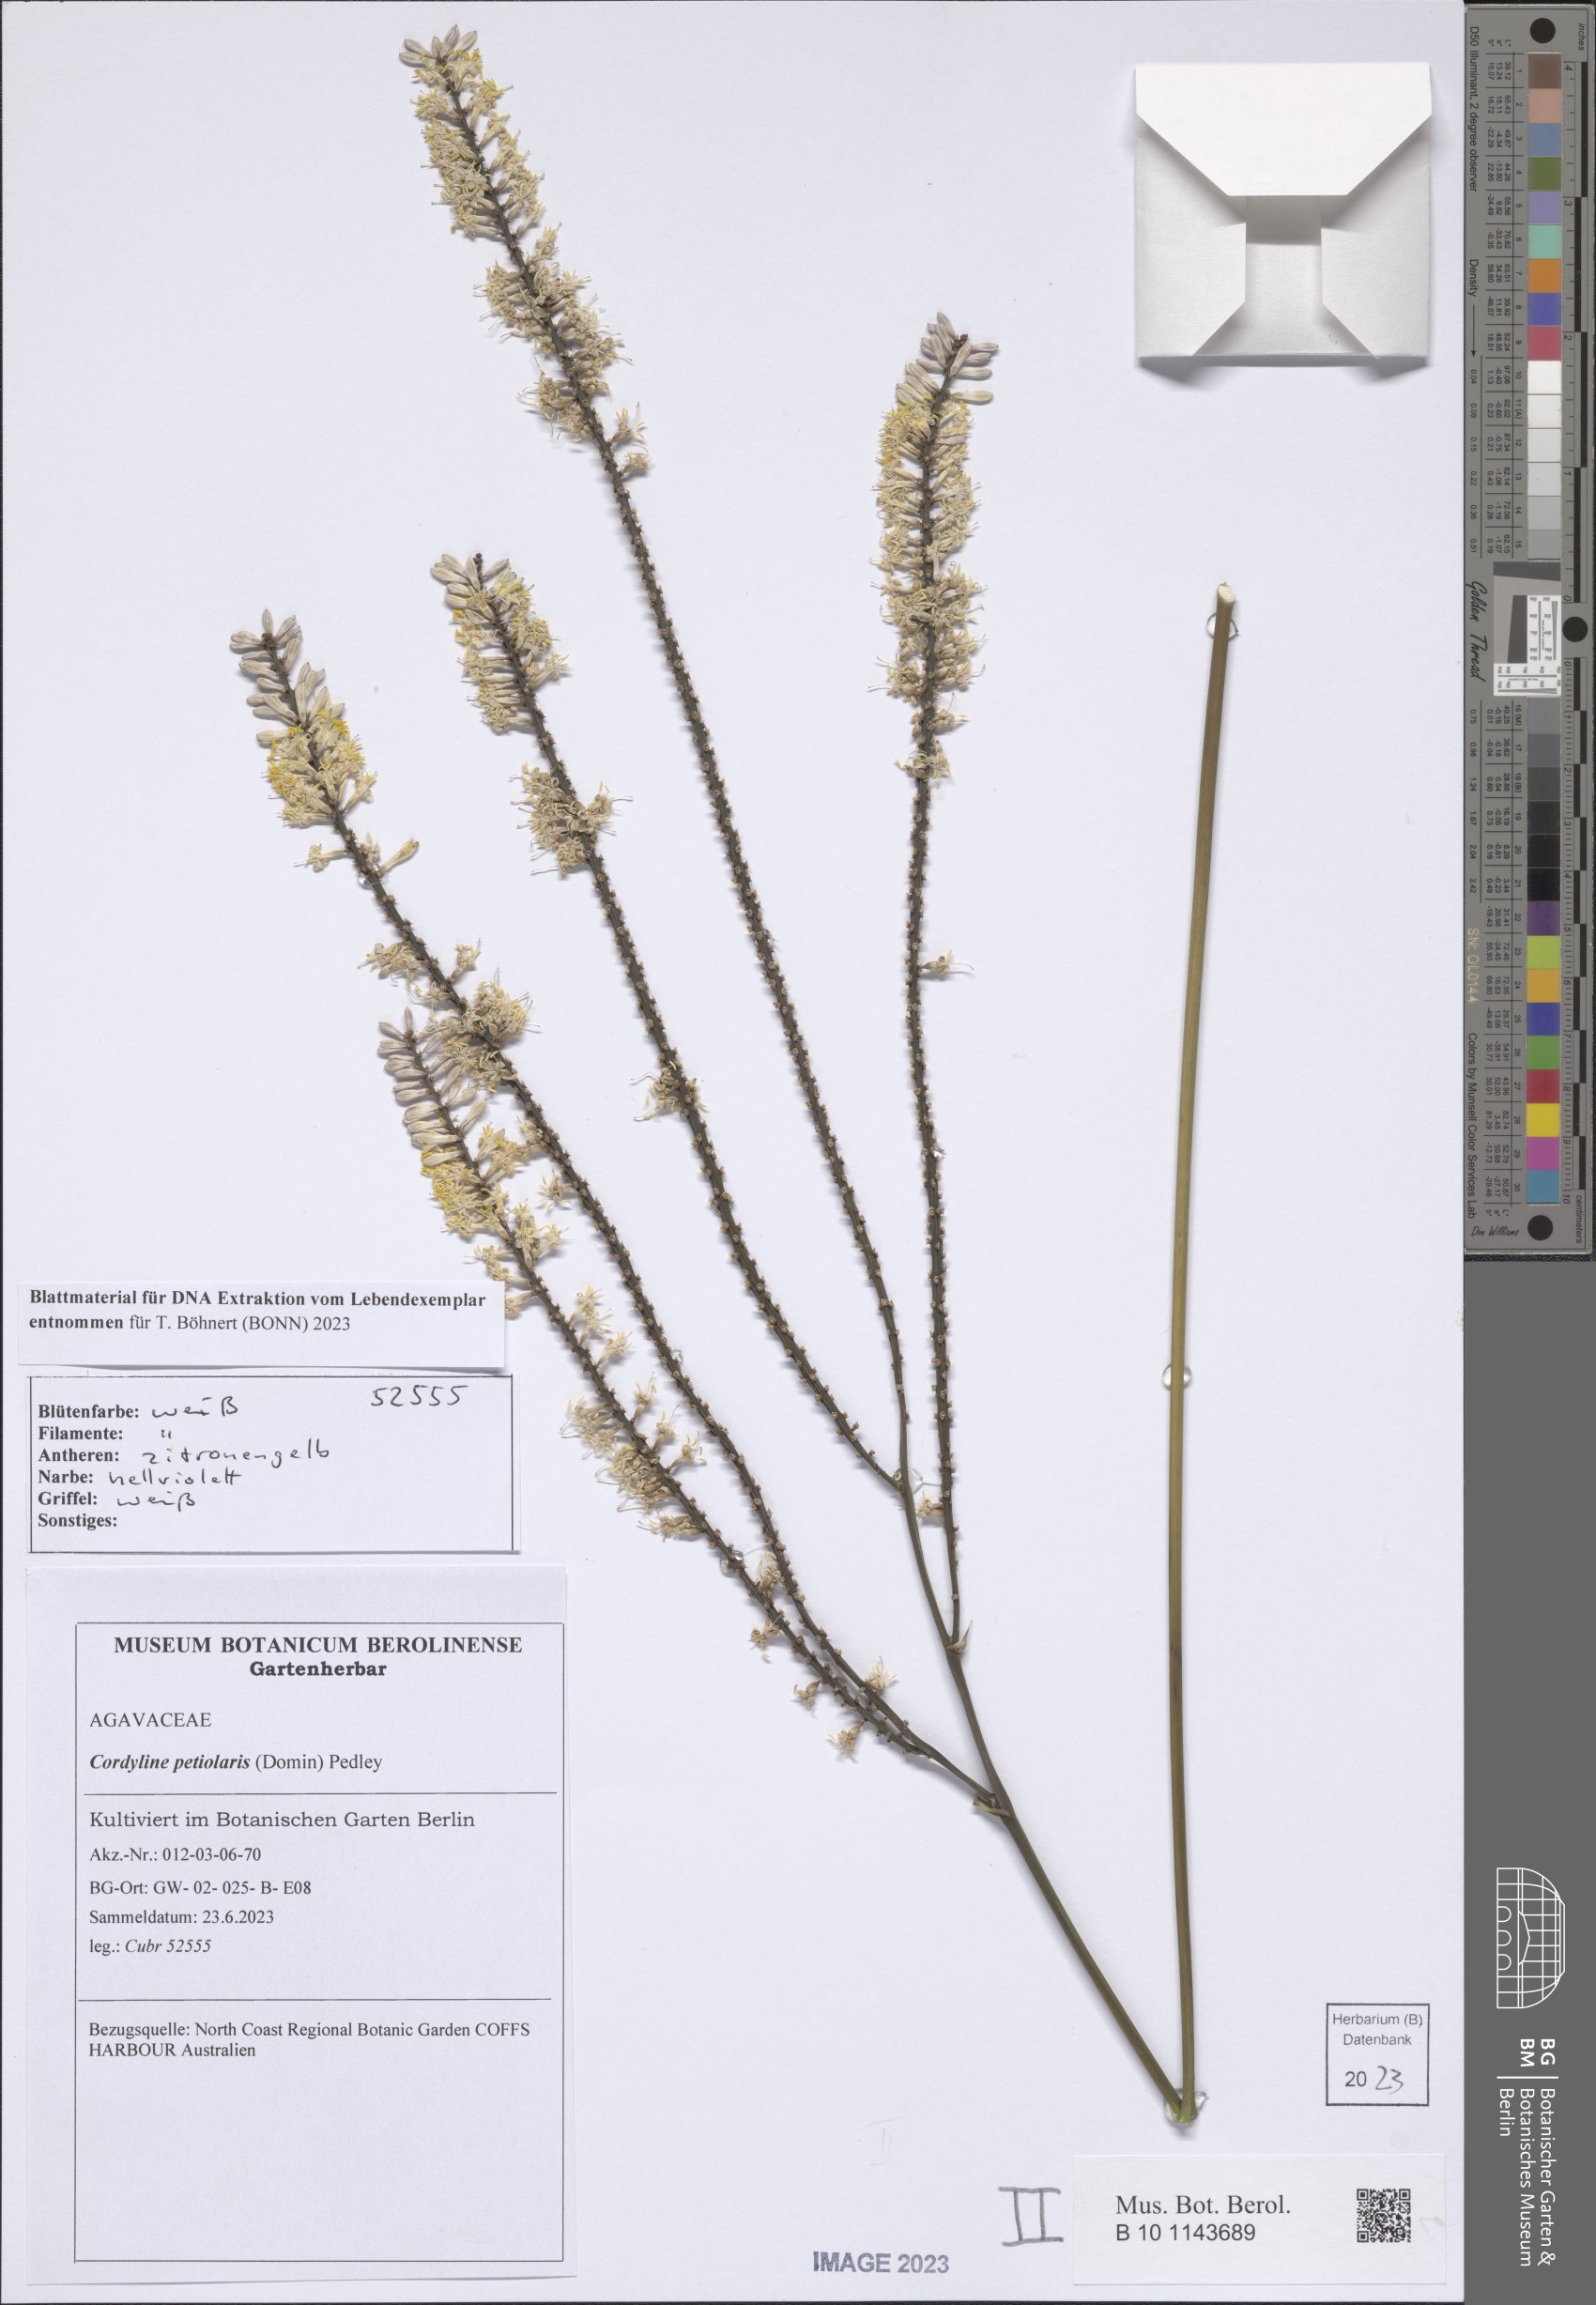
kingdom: Plantae
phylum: Tracheophyta
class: Liliopsida
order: Asparagales
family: Asparagaceae
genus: Cordyline
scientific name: Cordyline petiolaris
